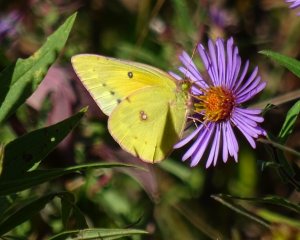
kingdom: Animalia
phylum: Arthropoda
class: Insecta
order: Lepidoptera
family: Pieridae
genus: Colias
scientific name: Colias eurytheme
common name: Orange Sulphur
